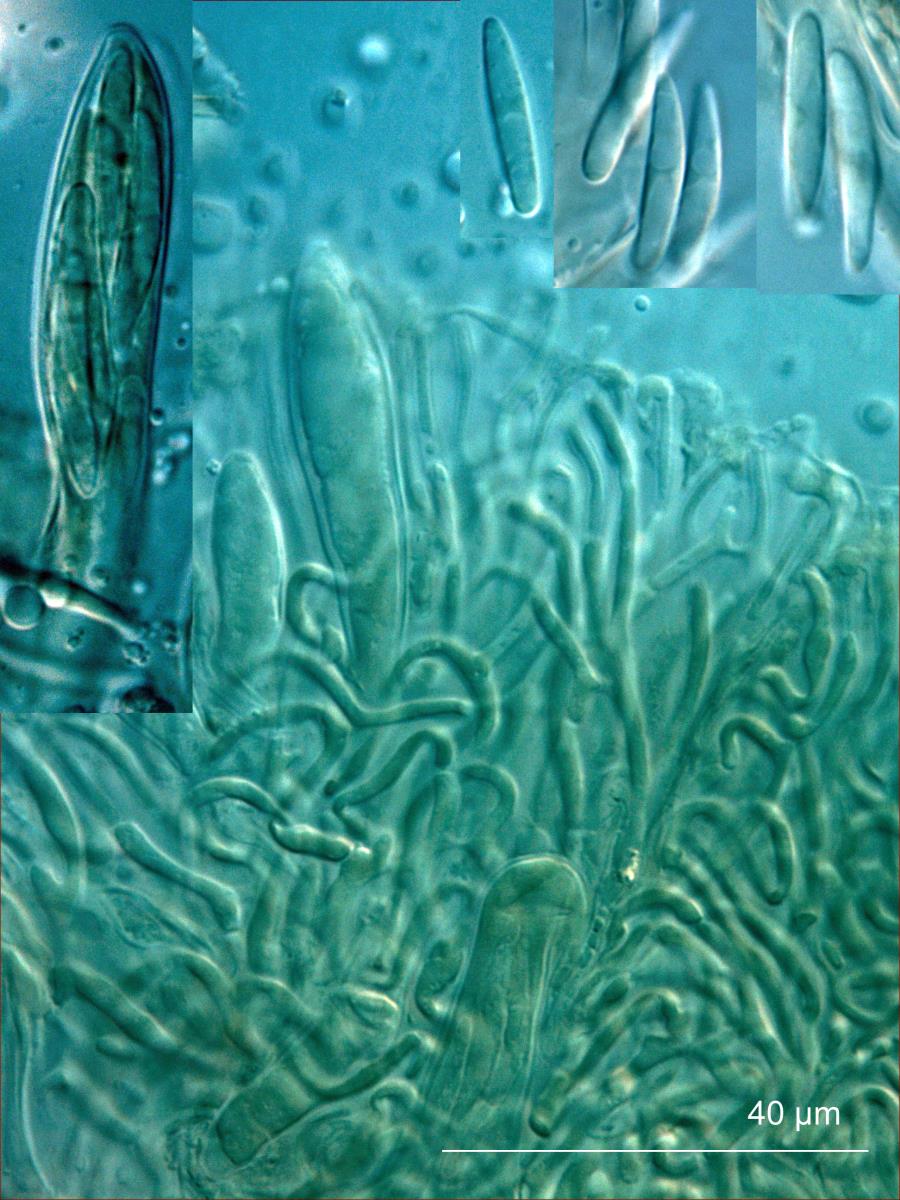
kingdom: Fungi
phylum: Ascomycota
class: Leotiomycetes
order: Rhytismatales
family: Rhytismataceae
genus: Hypoderma
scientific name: Hypoderma
